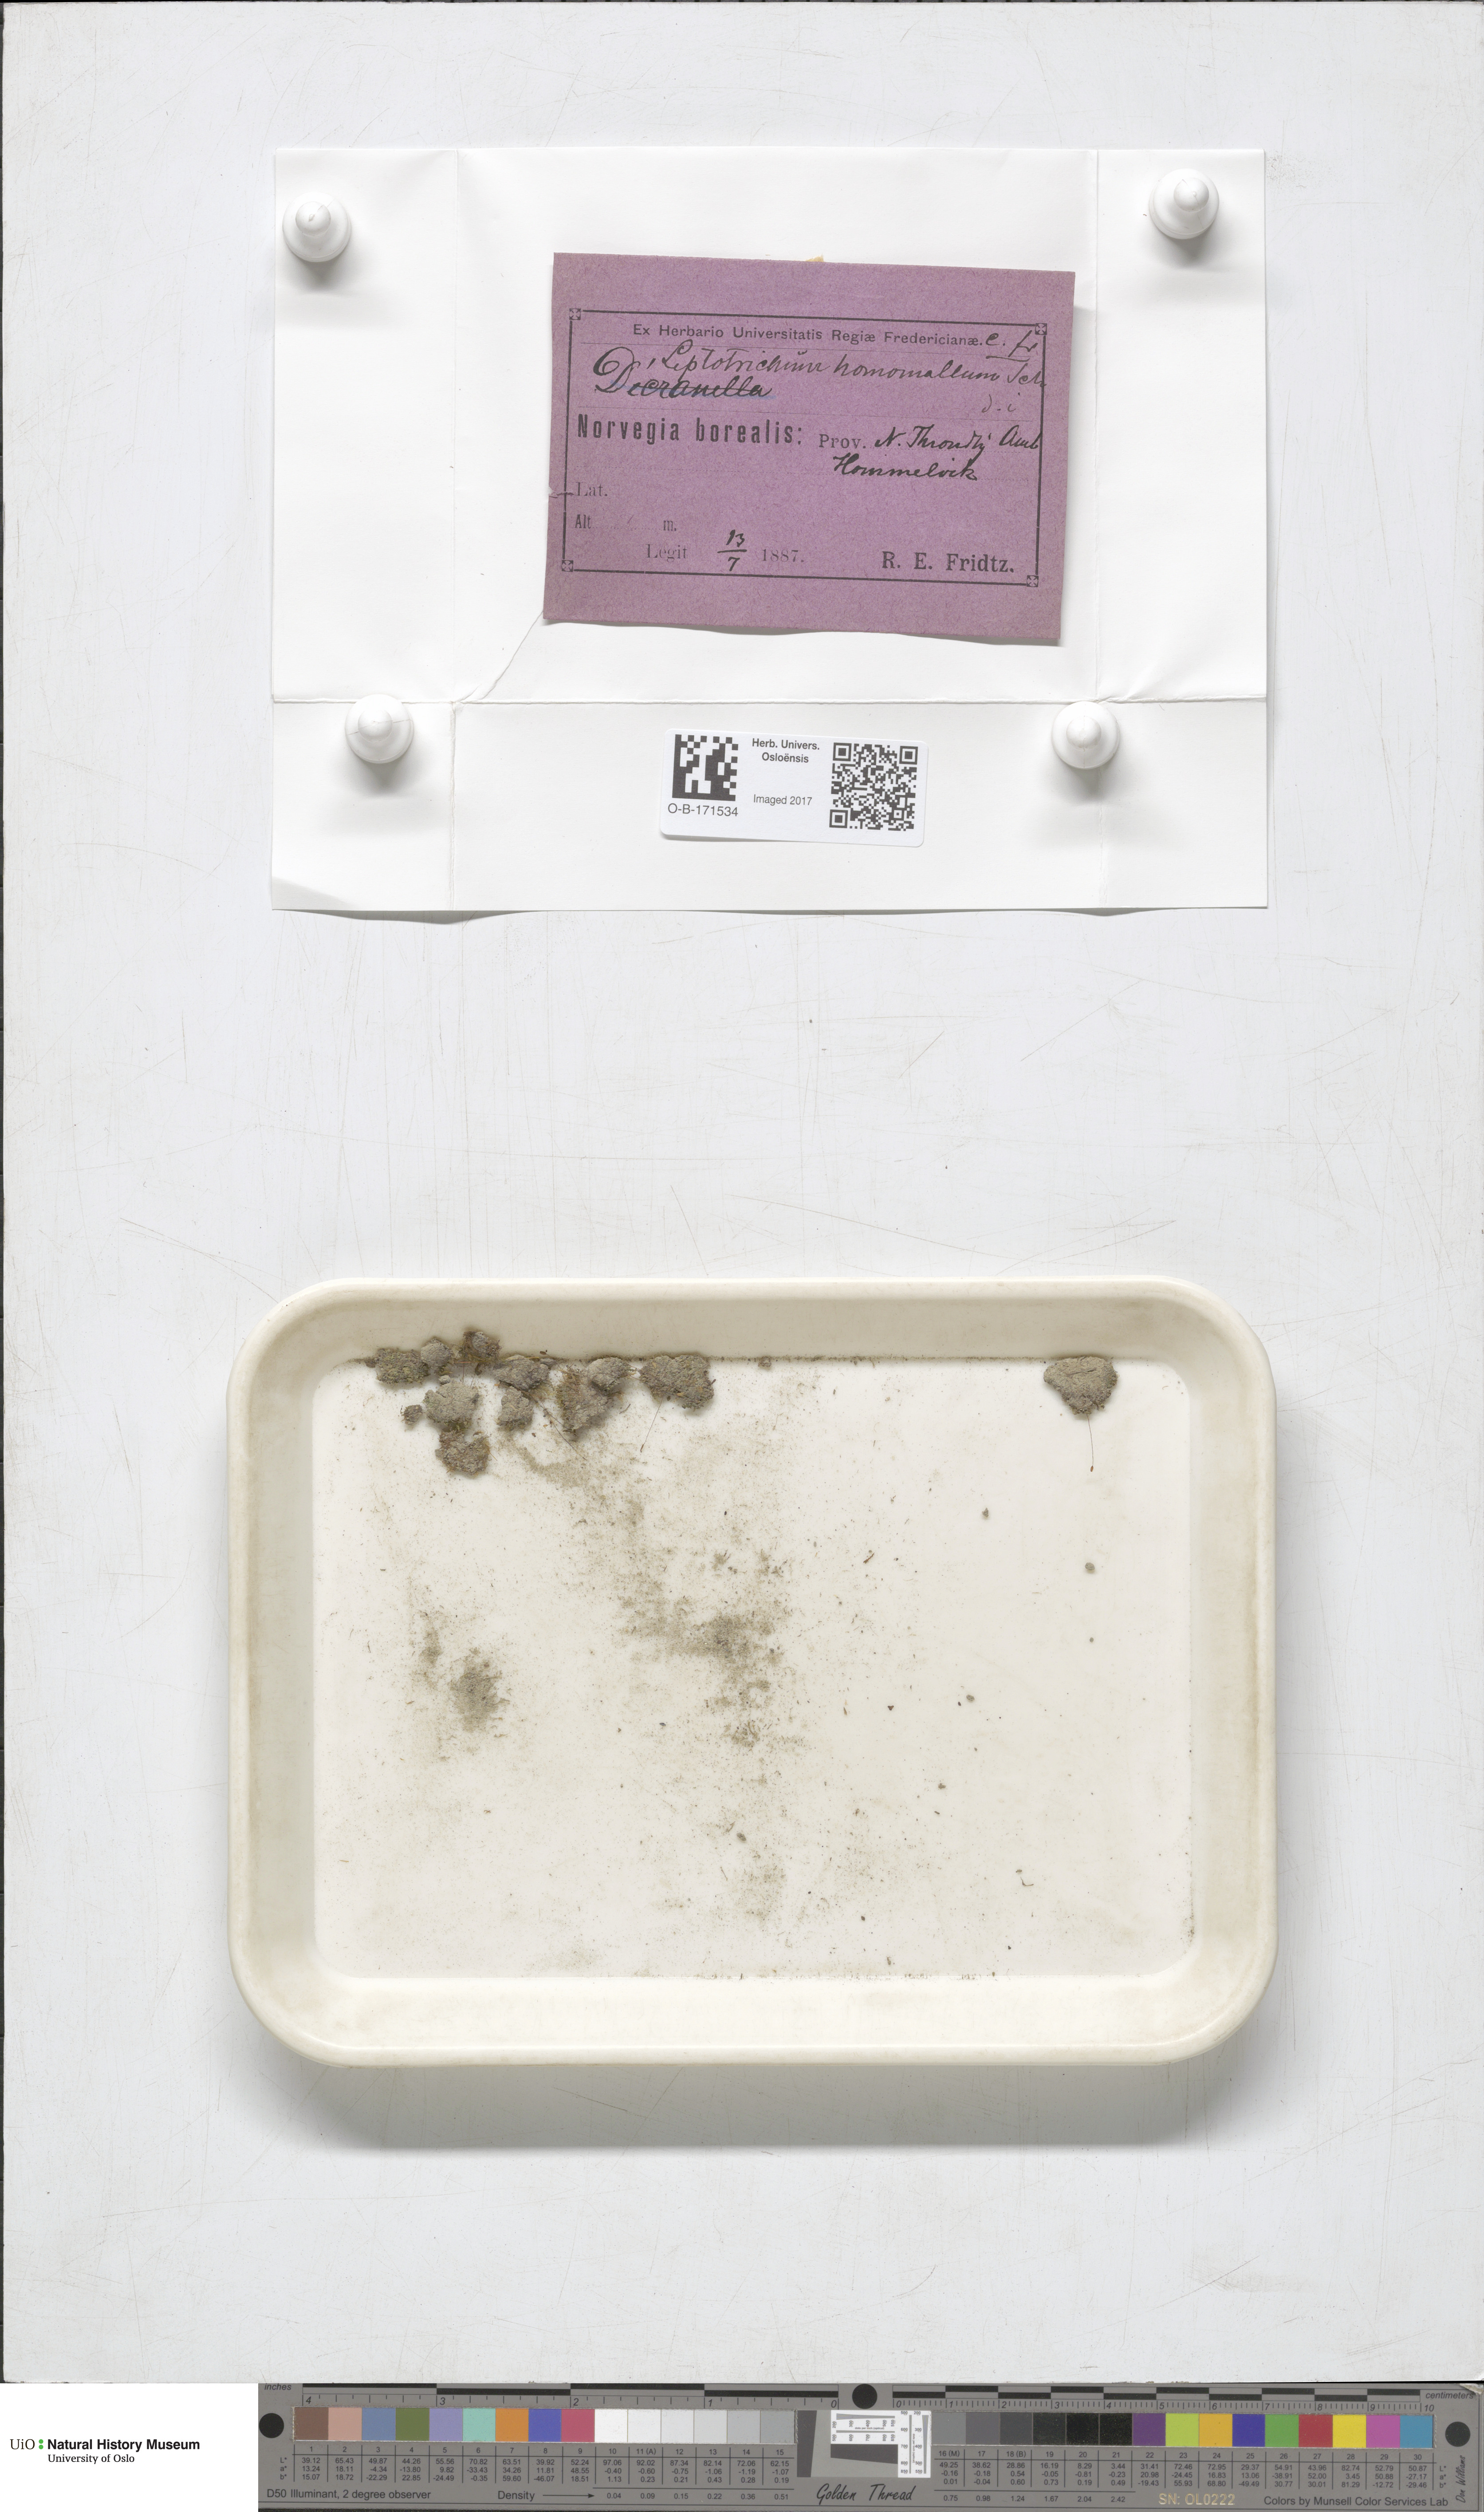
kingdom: Plantae
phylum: Bryophyta
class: Bryopsida
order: Dicranales
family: Ditrichaceae
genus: Ditrichum
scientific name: Ditrichum heteromallum
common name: Curve-leaved ditrichum
